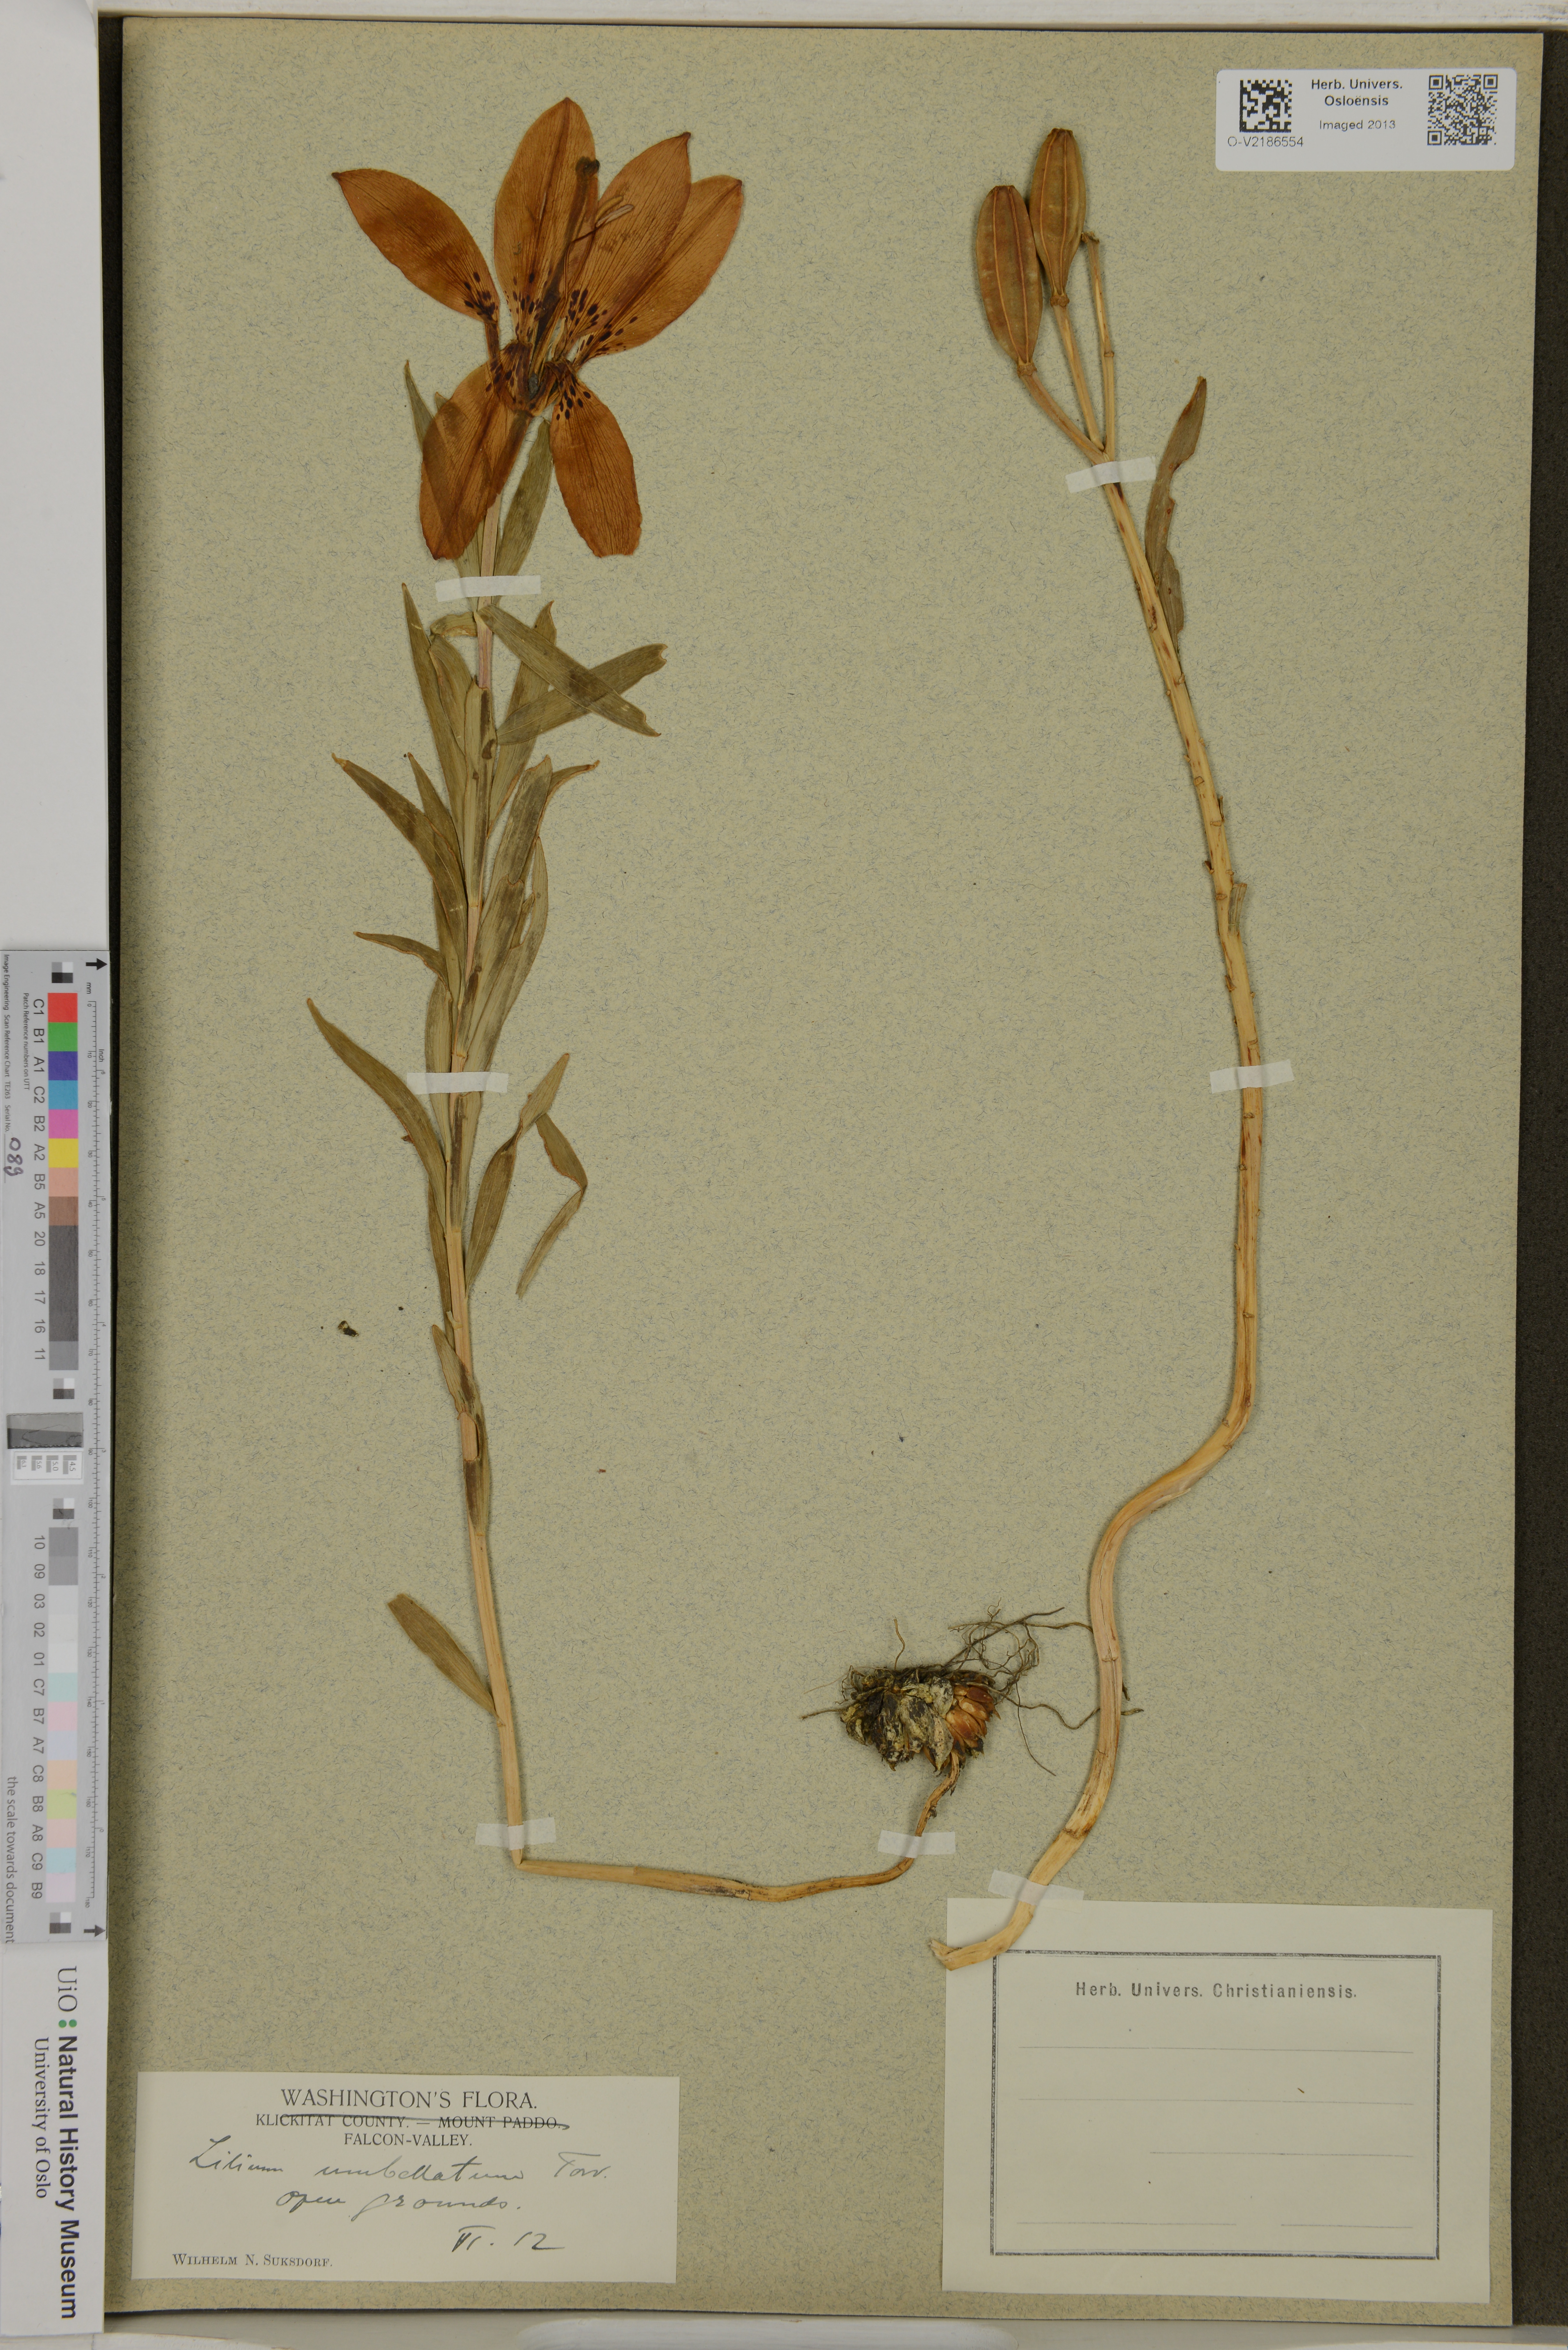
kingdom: Plantae
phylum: Tracheophyta
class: Liliopsida
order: Liliales
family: Liliaceae
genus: Lilium
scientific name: Lilium
